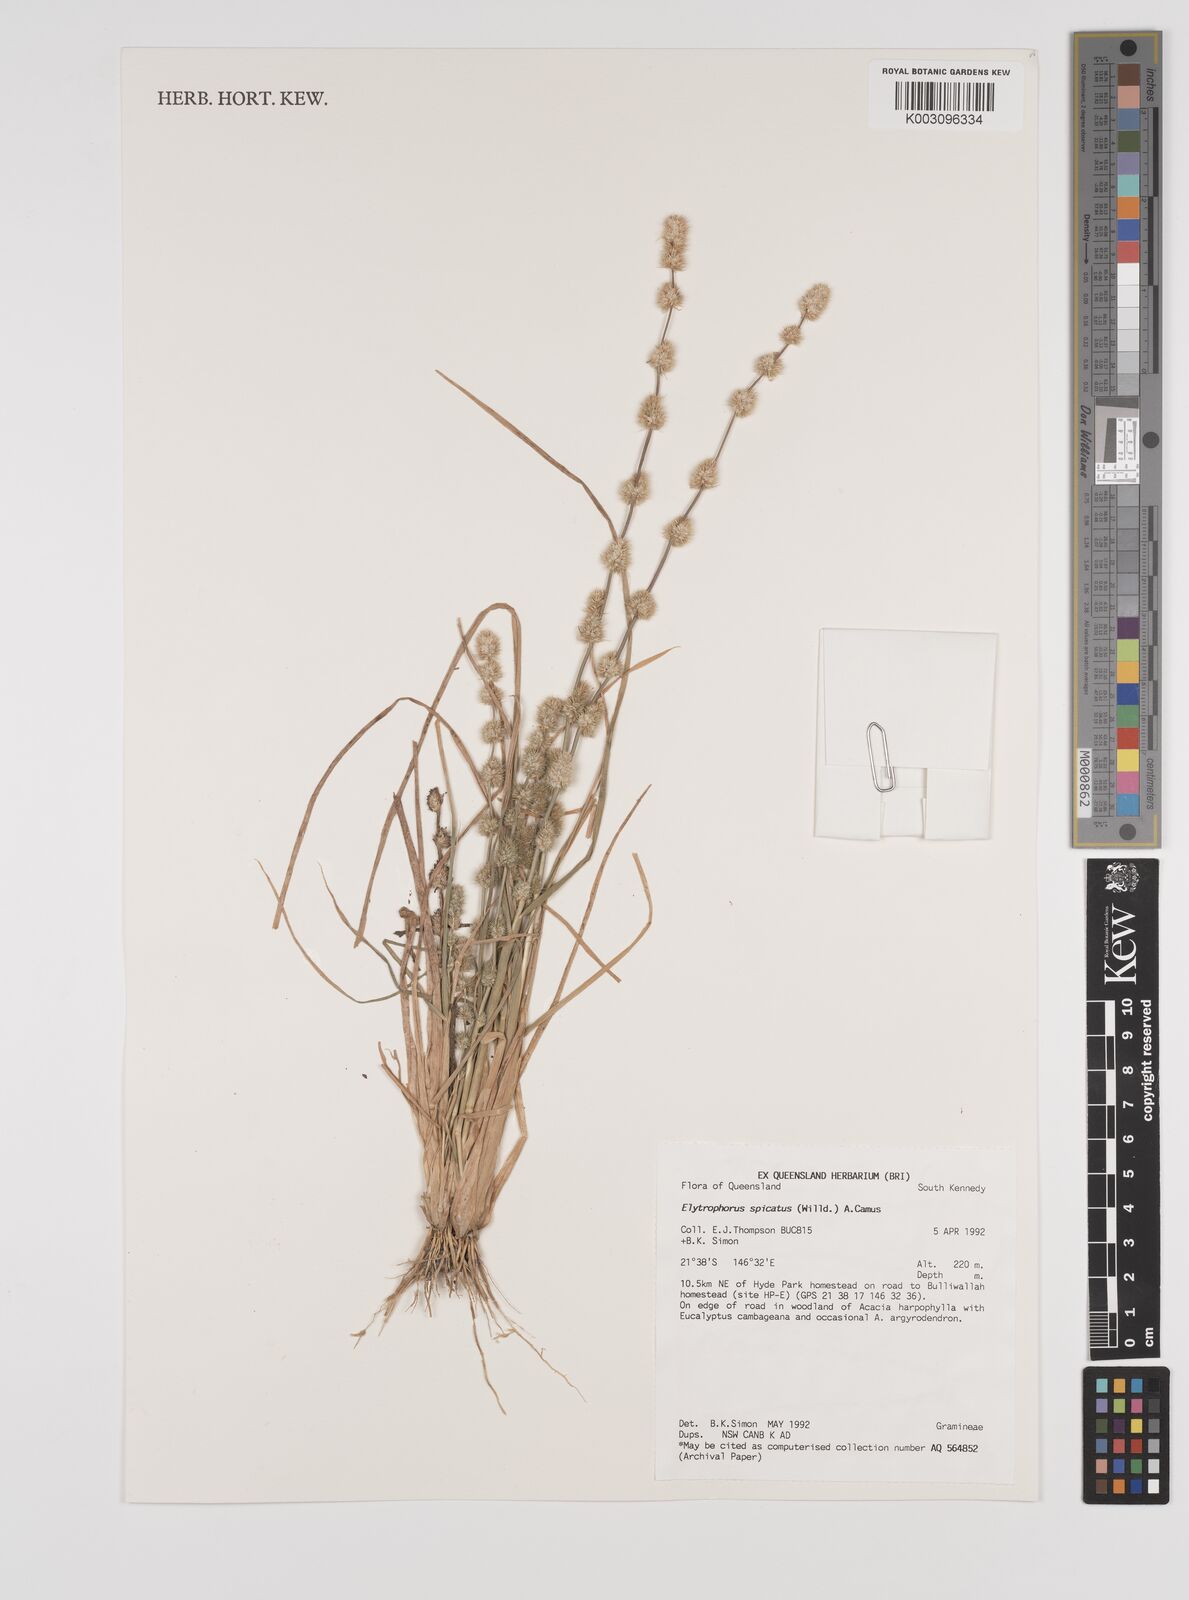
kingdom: Plantae
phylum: Tracheophyta
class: Liliopsida
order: Poales
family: Poaceae
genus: Elytrophorus
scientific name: Elytrophorus spicatus
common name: Spike grass
